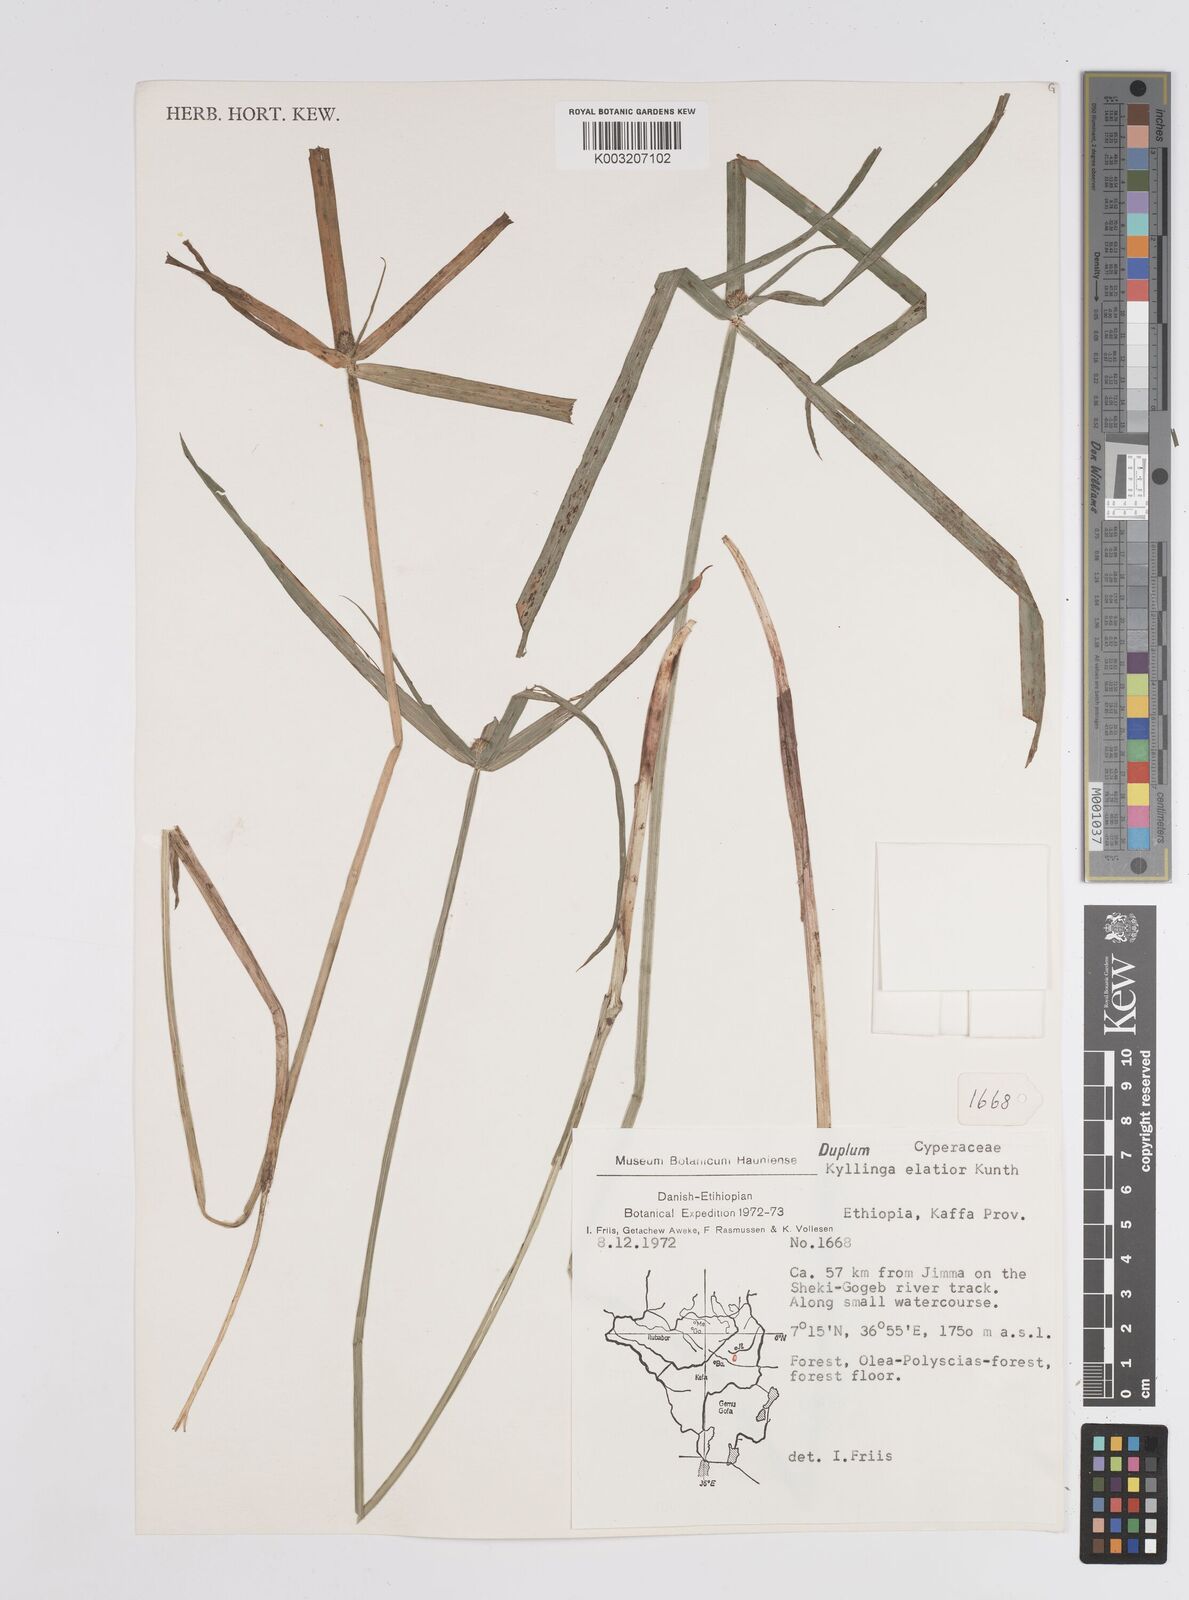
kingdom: Plantae
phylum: Tracheophyta
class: Liliopsida
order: Poales
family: Cyperaceae
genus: Cyperus
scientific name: Cyperus
